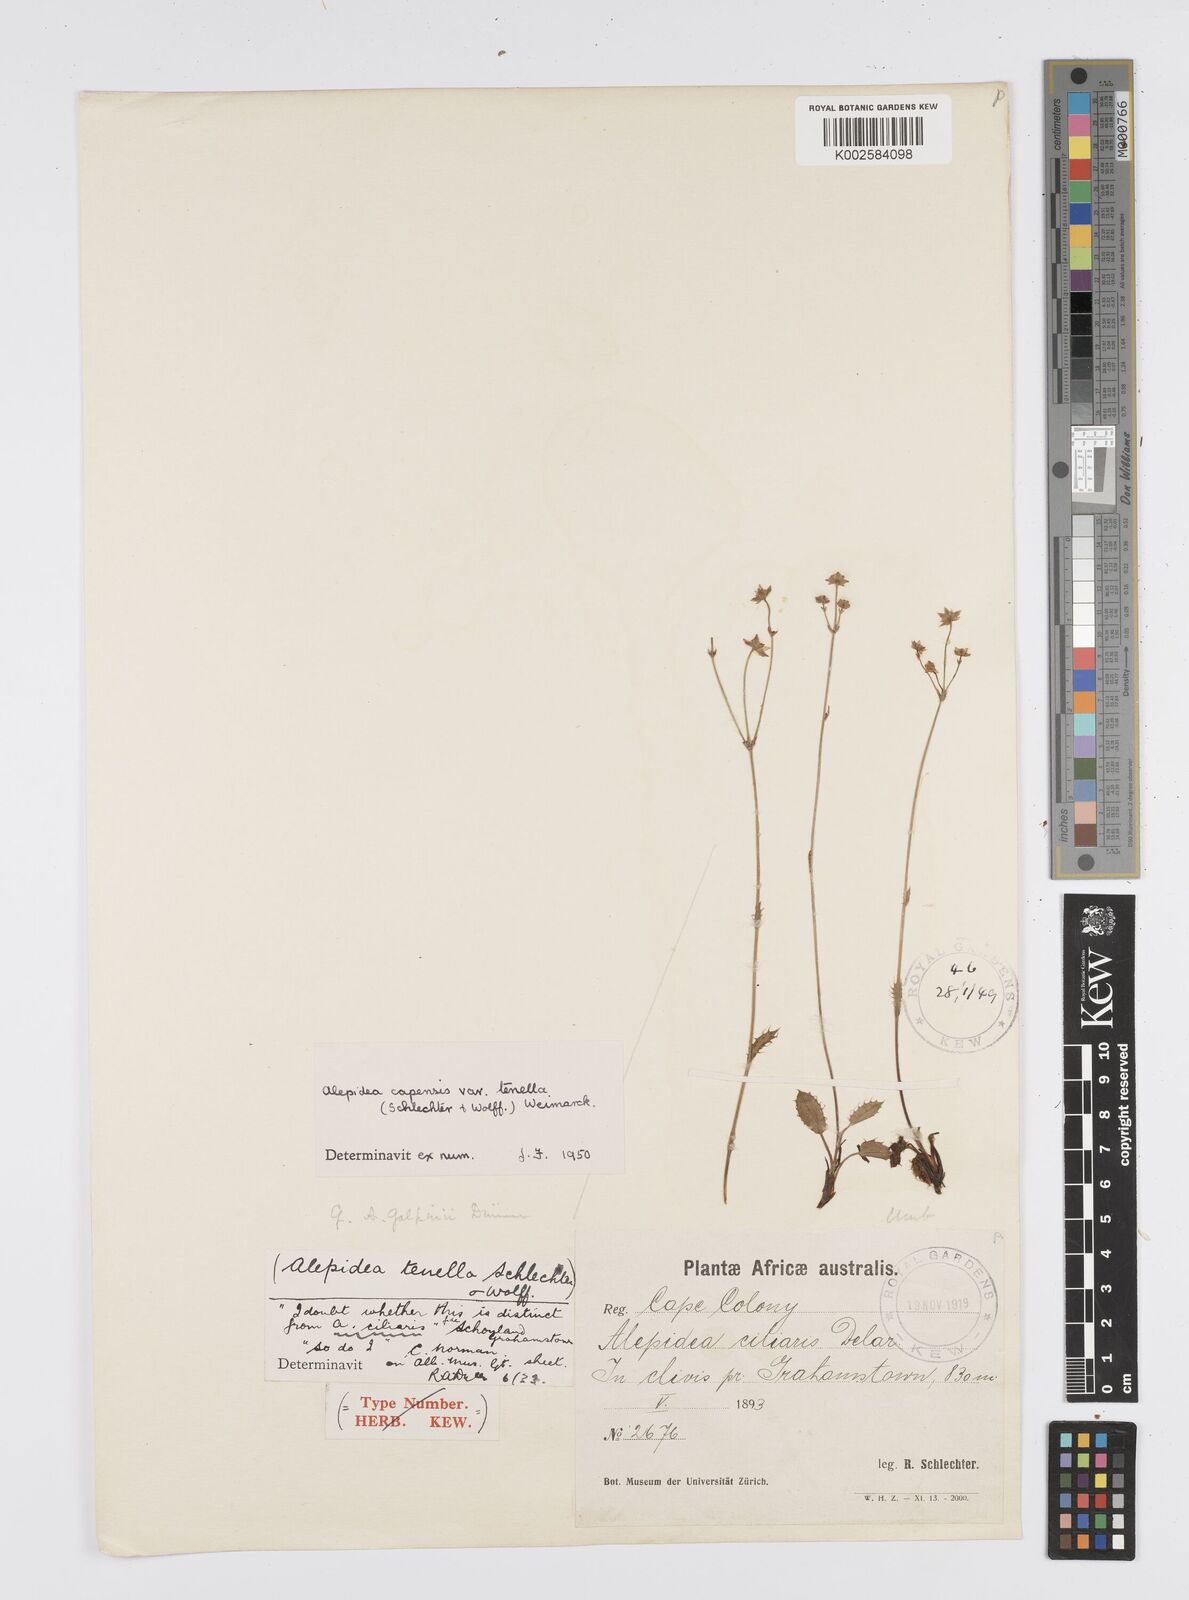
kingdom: Plantae
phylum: Tracheophyta
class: Magnoliopsida
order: Apiales
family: Apiaceae
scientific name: Apiaceae
